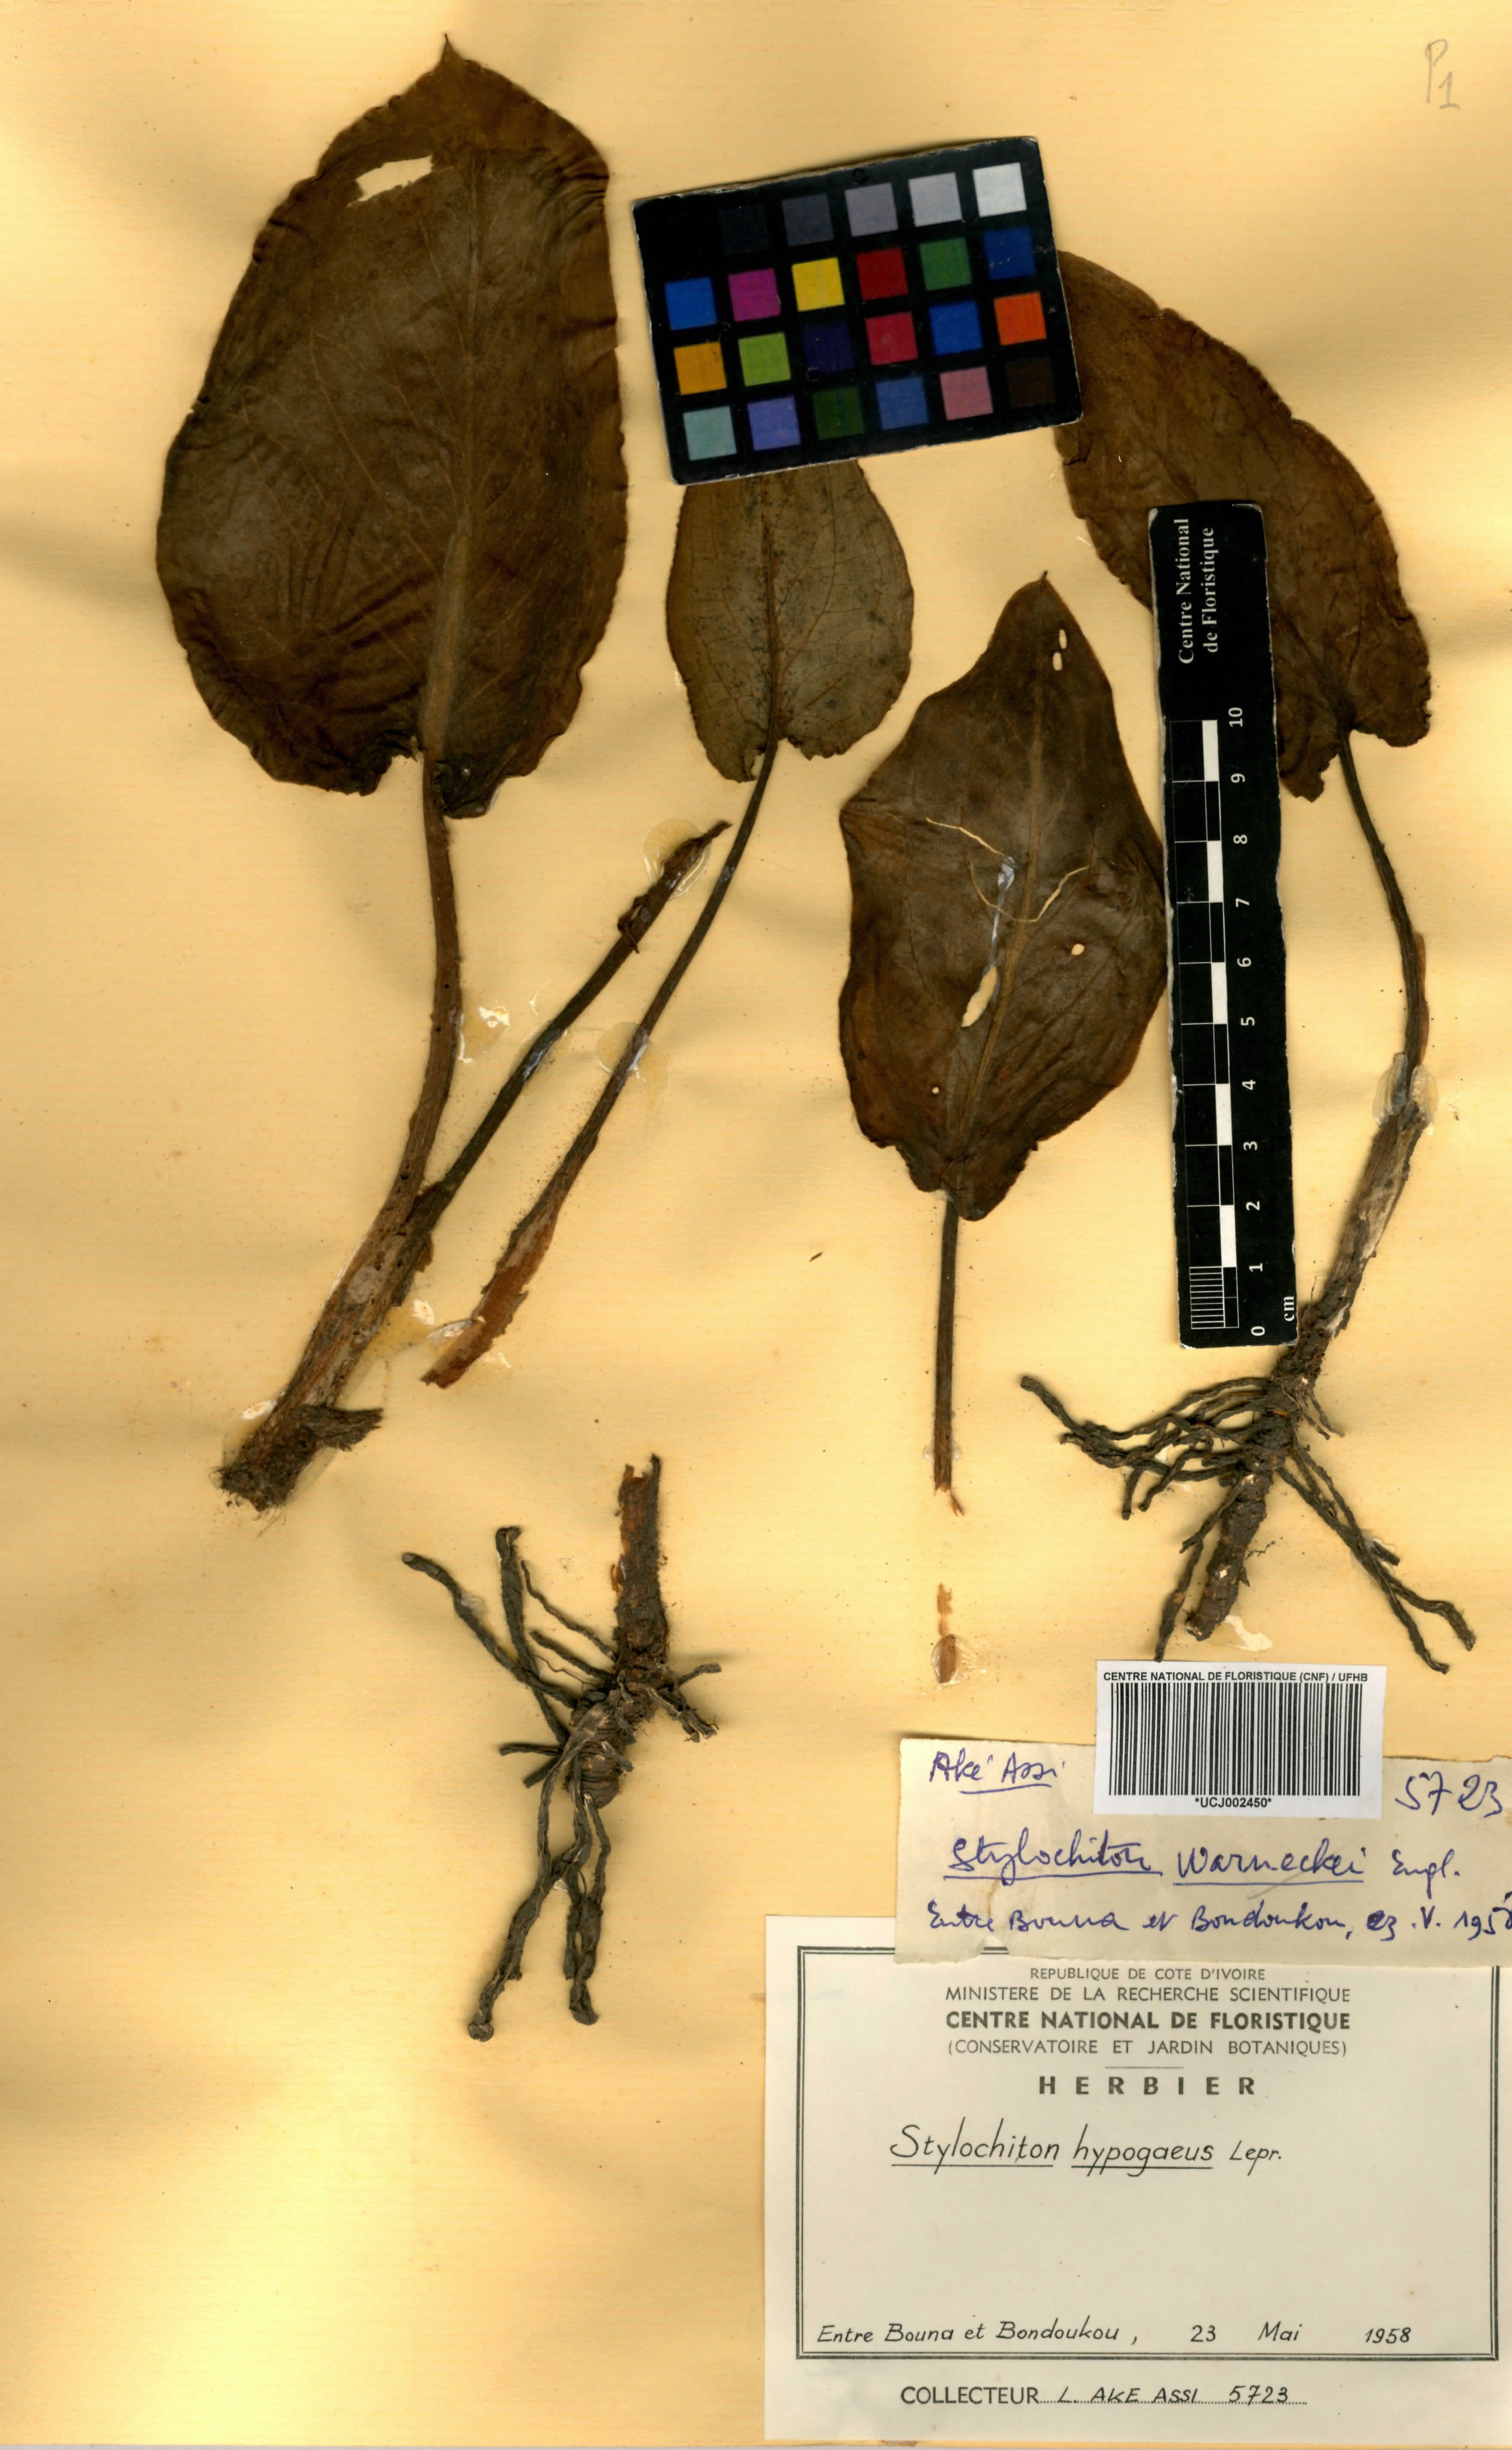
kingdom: Plantae
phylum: Tracheophyta
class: Liliopsida
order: Alismatales
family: Araceae
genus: Stylochaeton
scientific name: Stylochaeton hypogaeum
